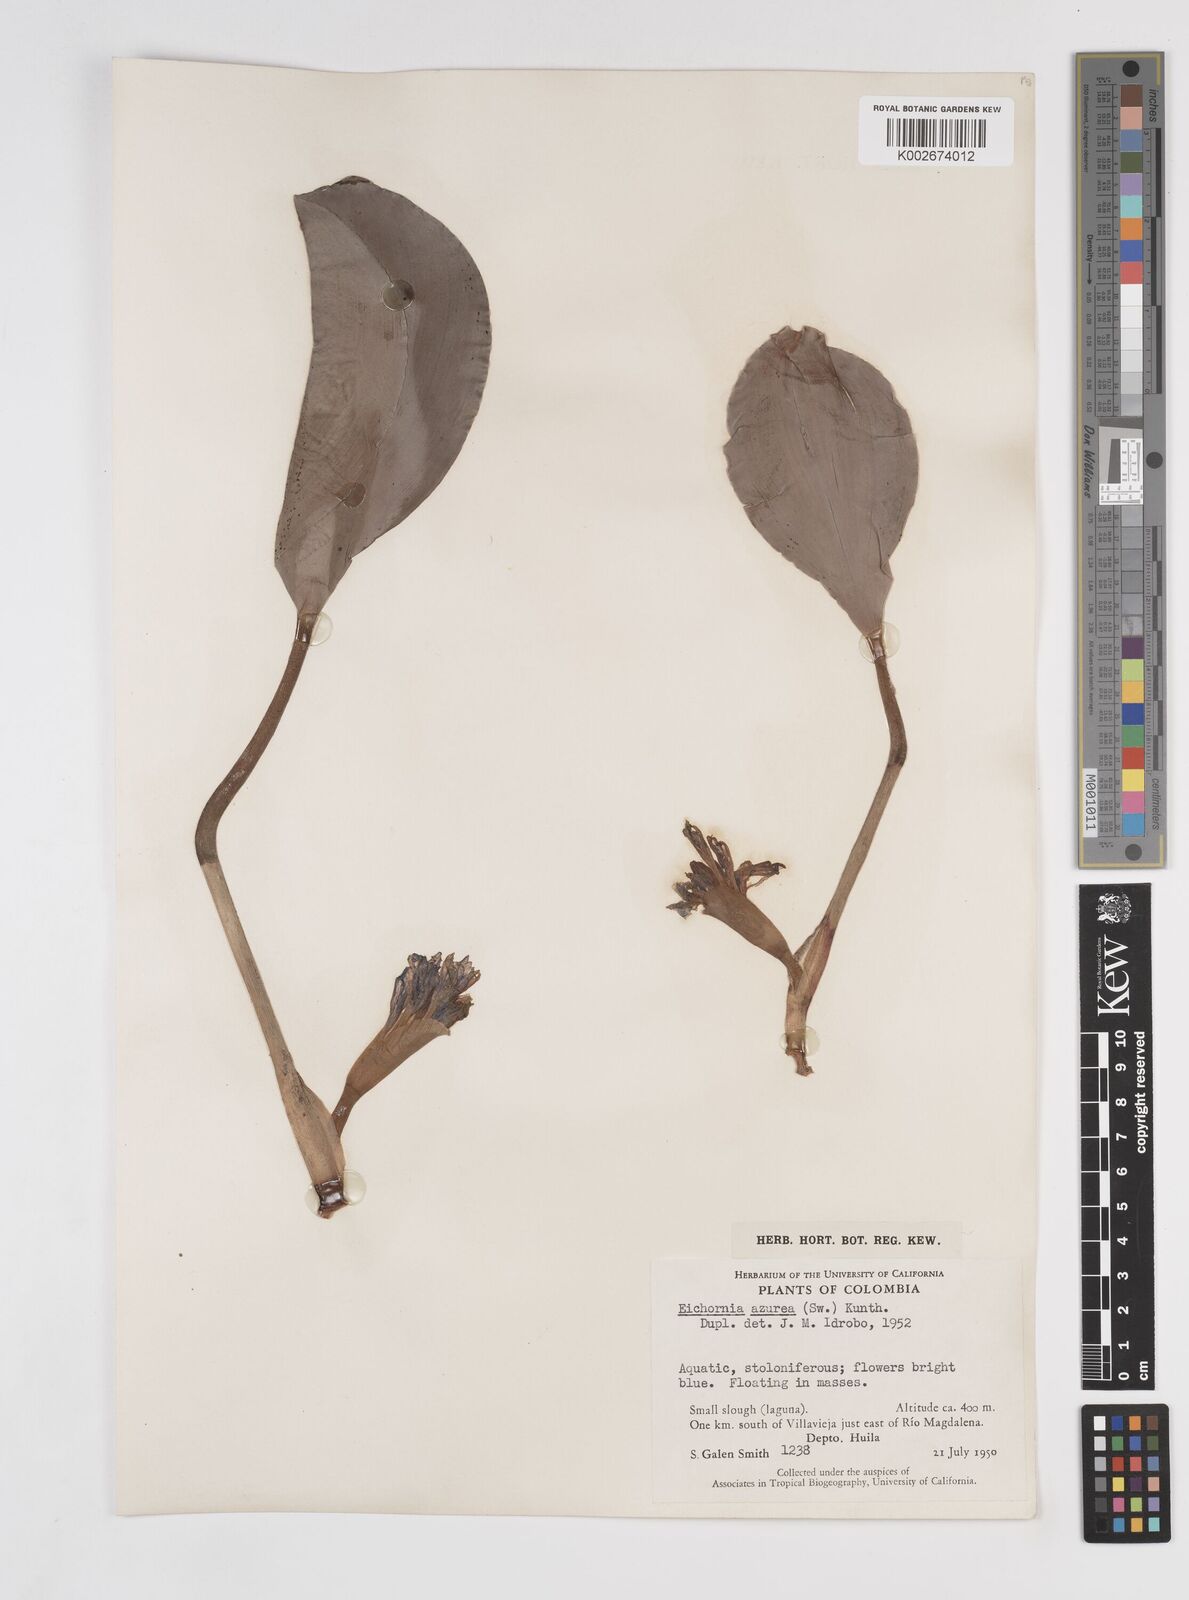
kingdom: Plantae
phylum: Tracheophyta
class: Liliopsida
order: Commelinales
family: Pontederiaceae
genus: Pontederia
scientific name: Pontederia azurea
